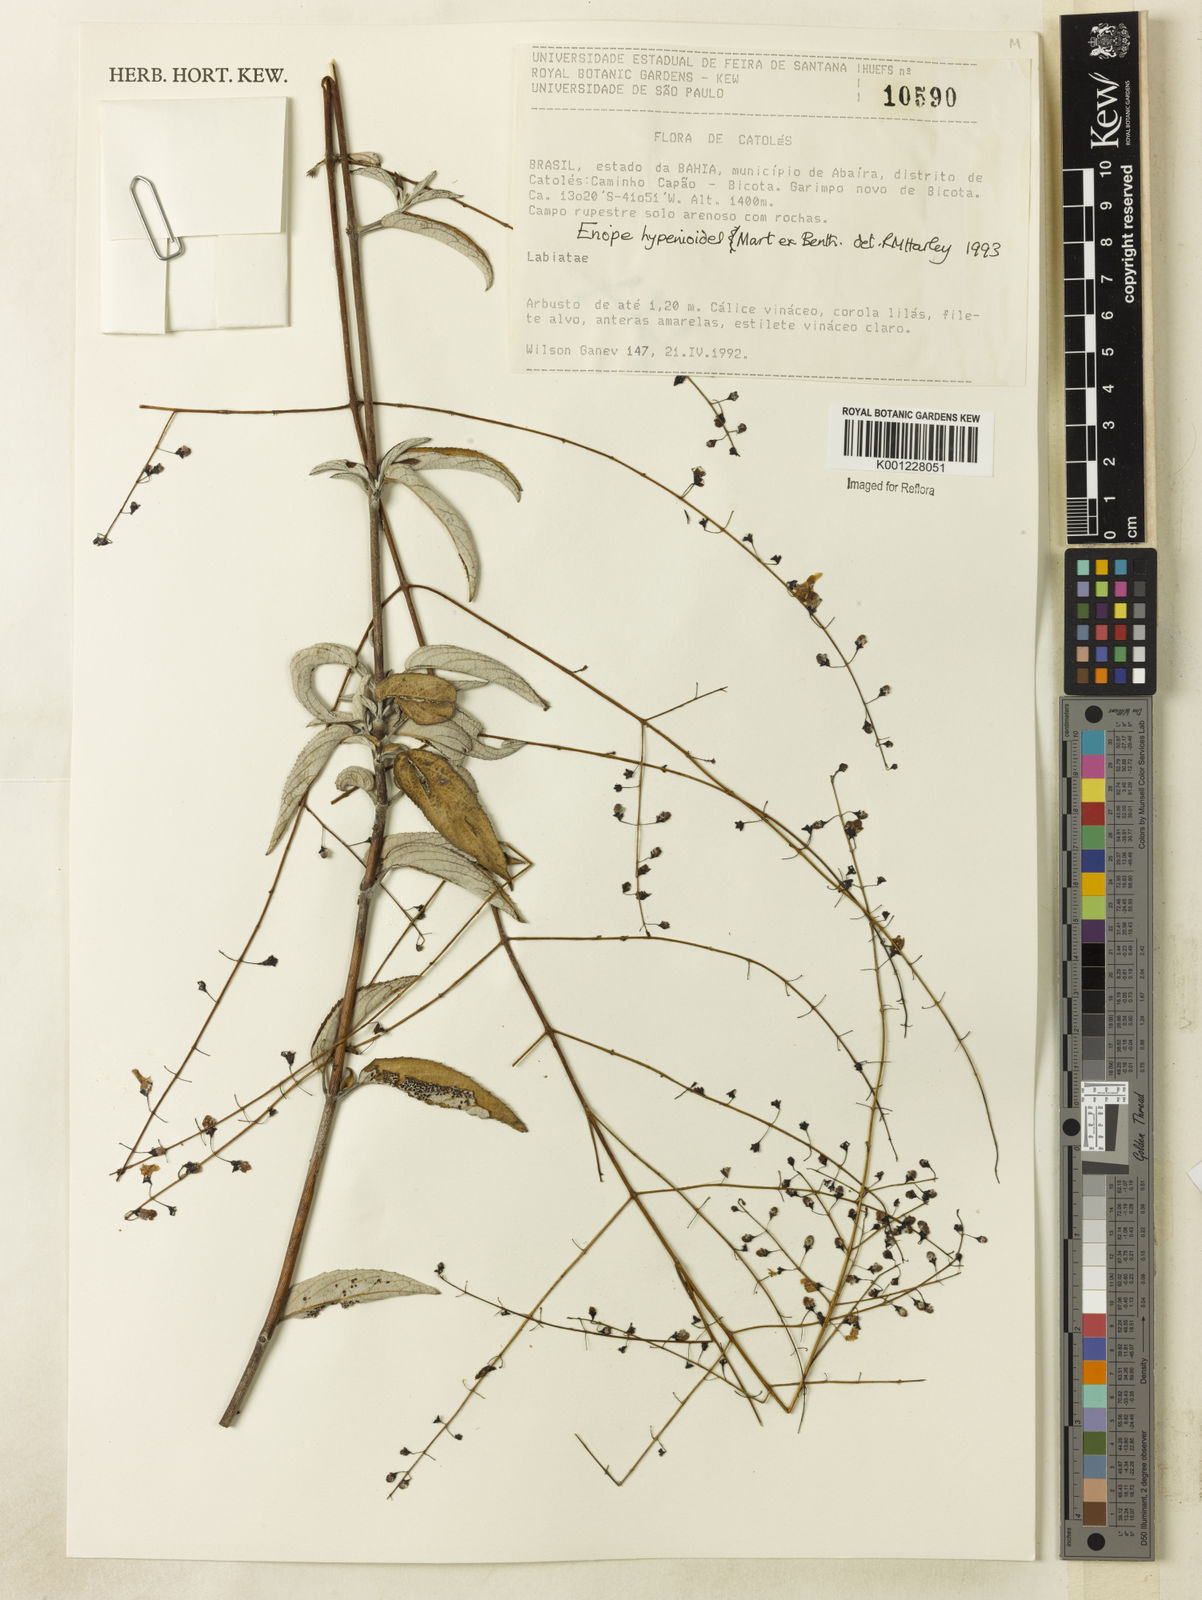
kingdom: Plantae
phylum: Tracheophyta
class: Magnoliopsida
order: Lamiales
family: Lamiaceae
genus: Eriope
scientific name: Eriope hypenioides
